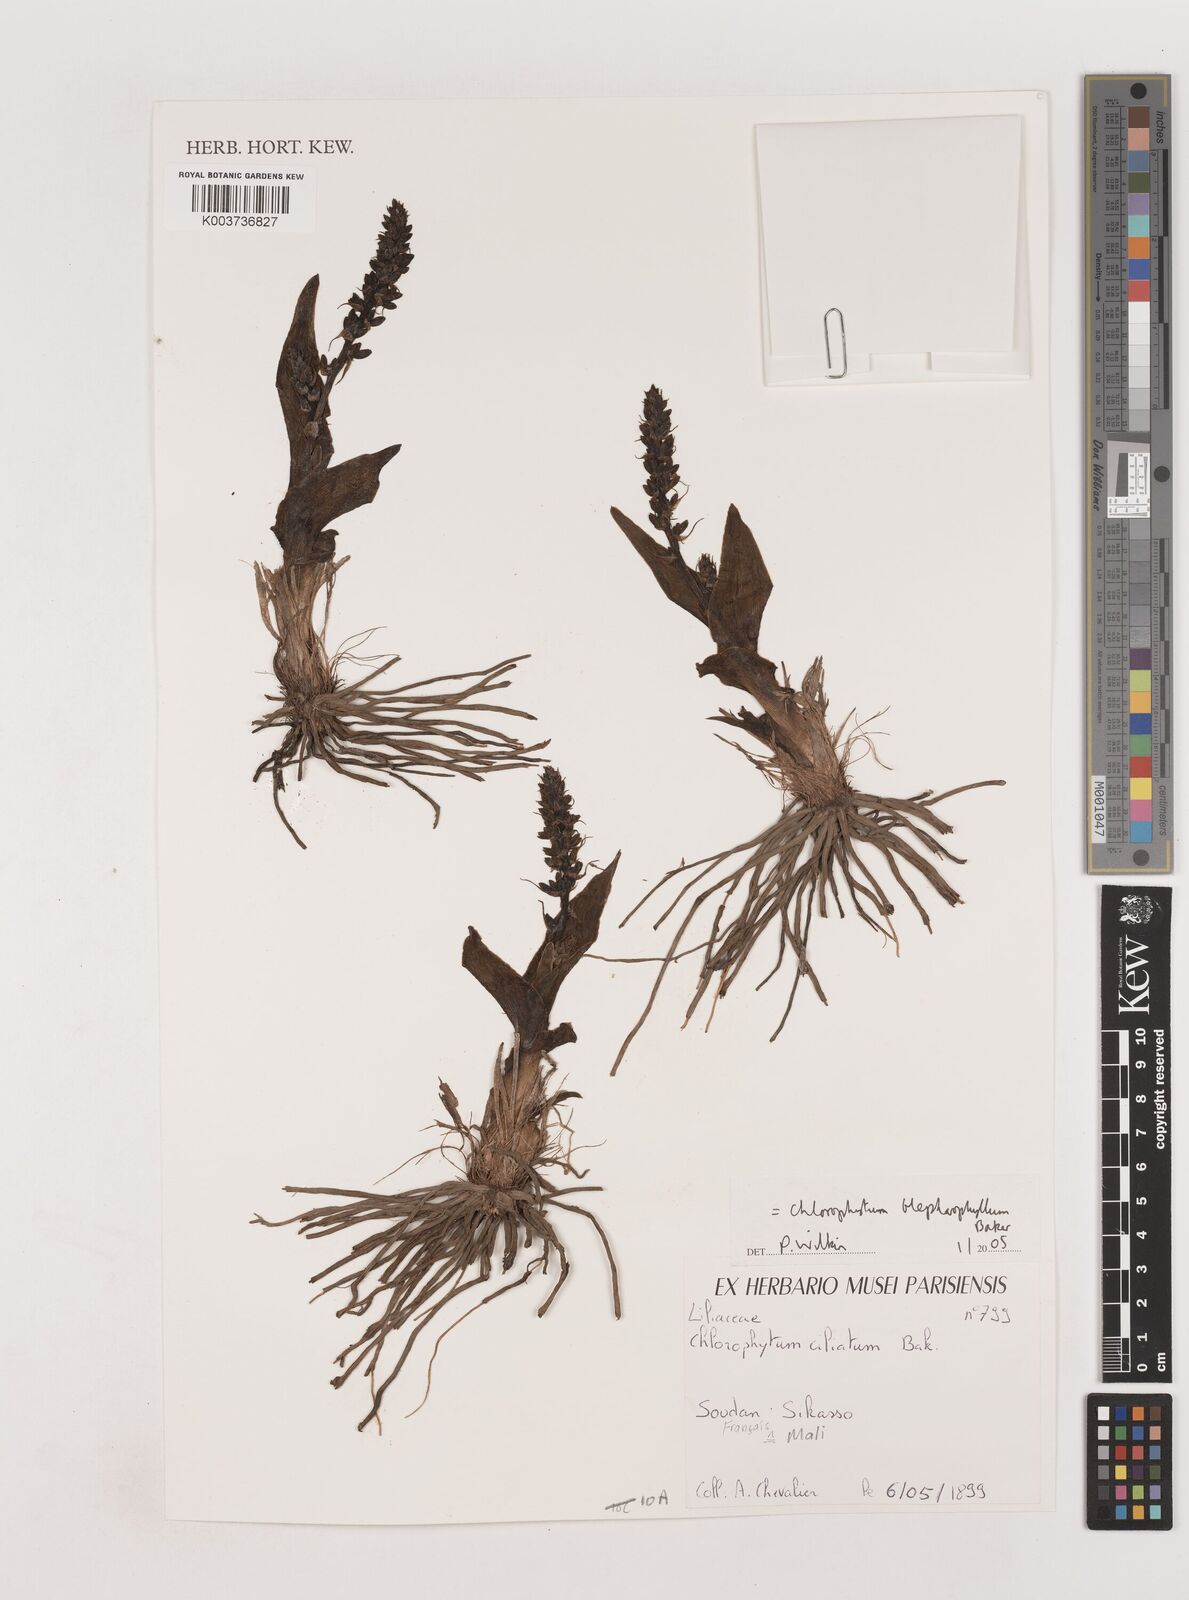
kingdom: Plantae
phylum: Tracheophyta
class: Liliopsida
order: Asparagales
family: Asparagaceae
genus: Chlorophytum
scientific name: Chlorophytum blepharophyllum
